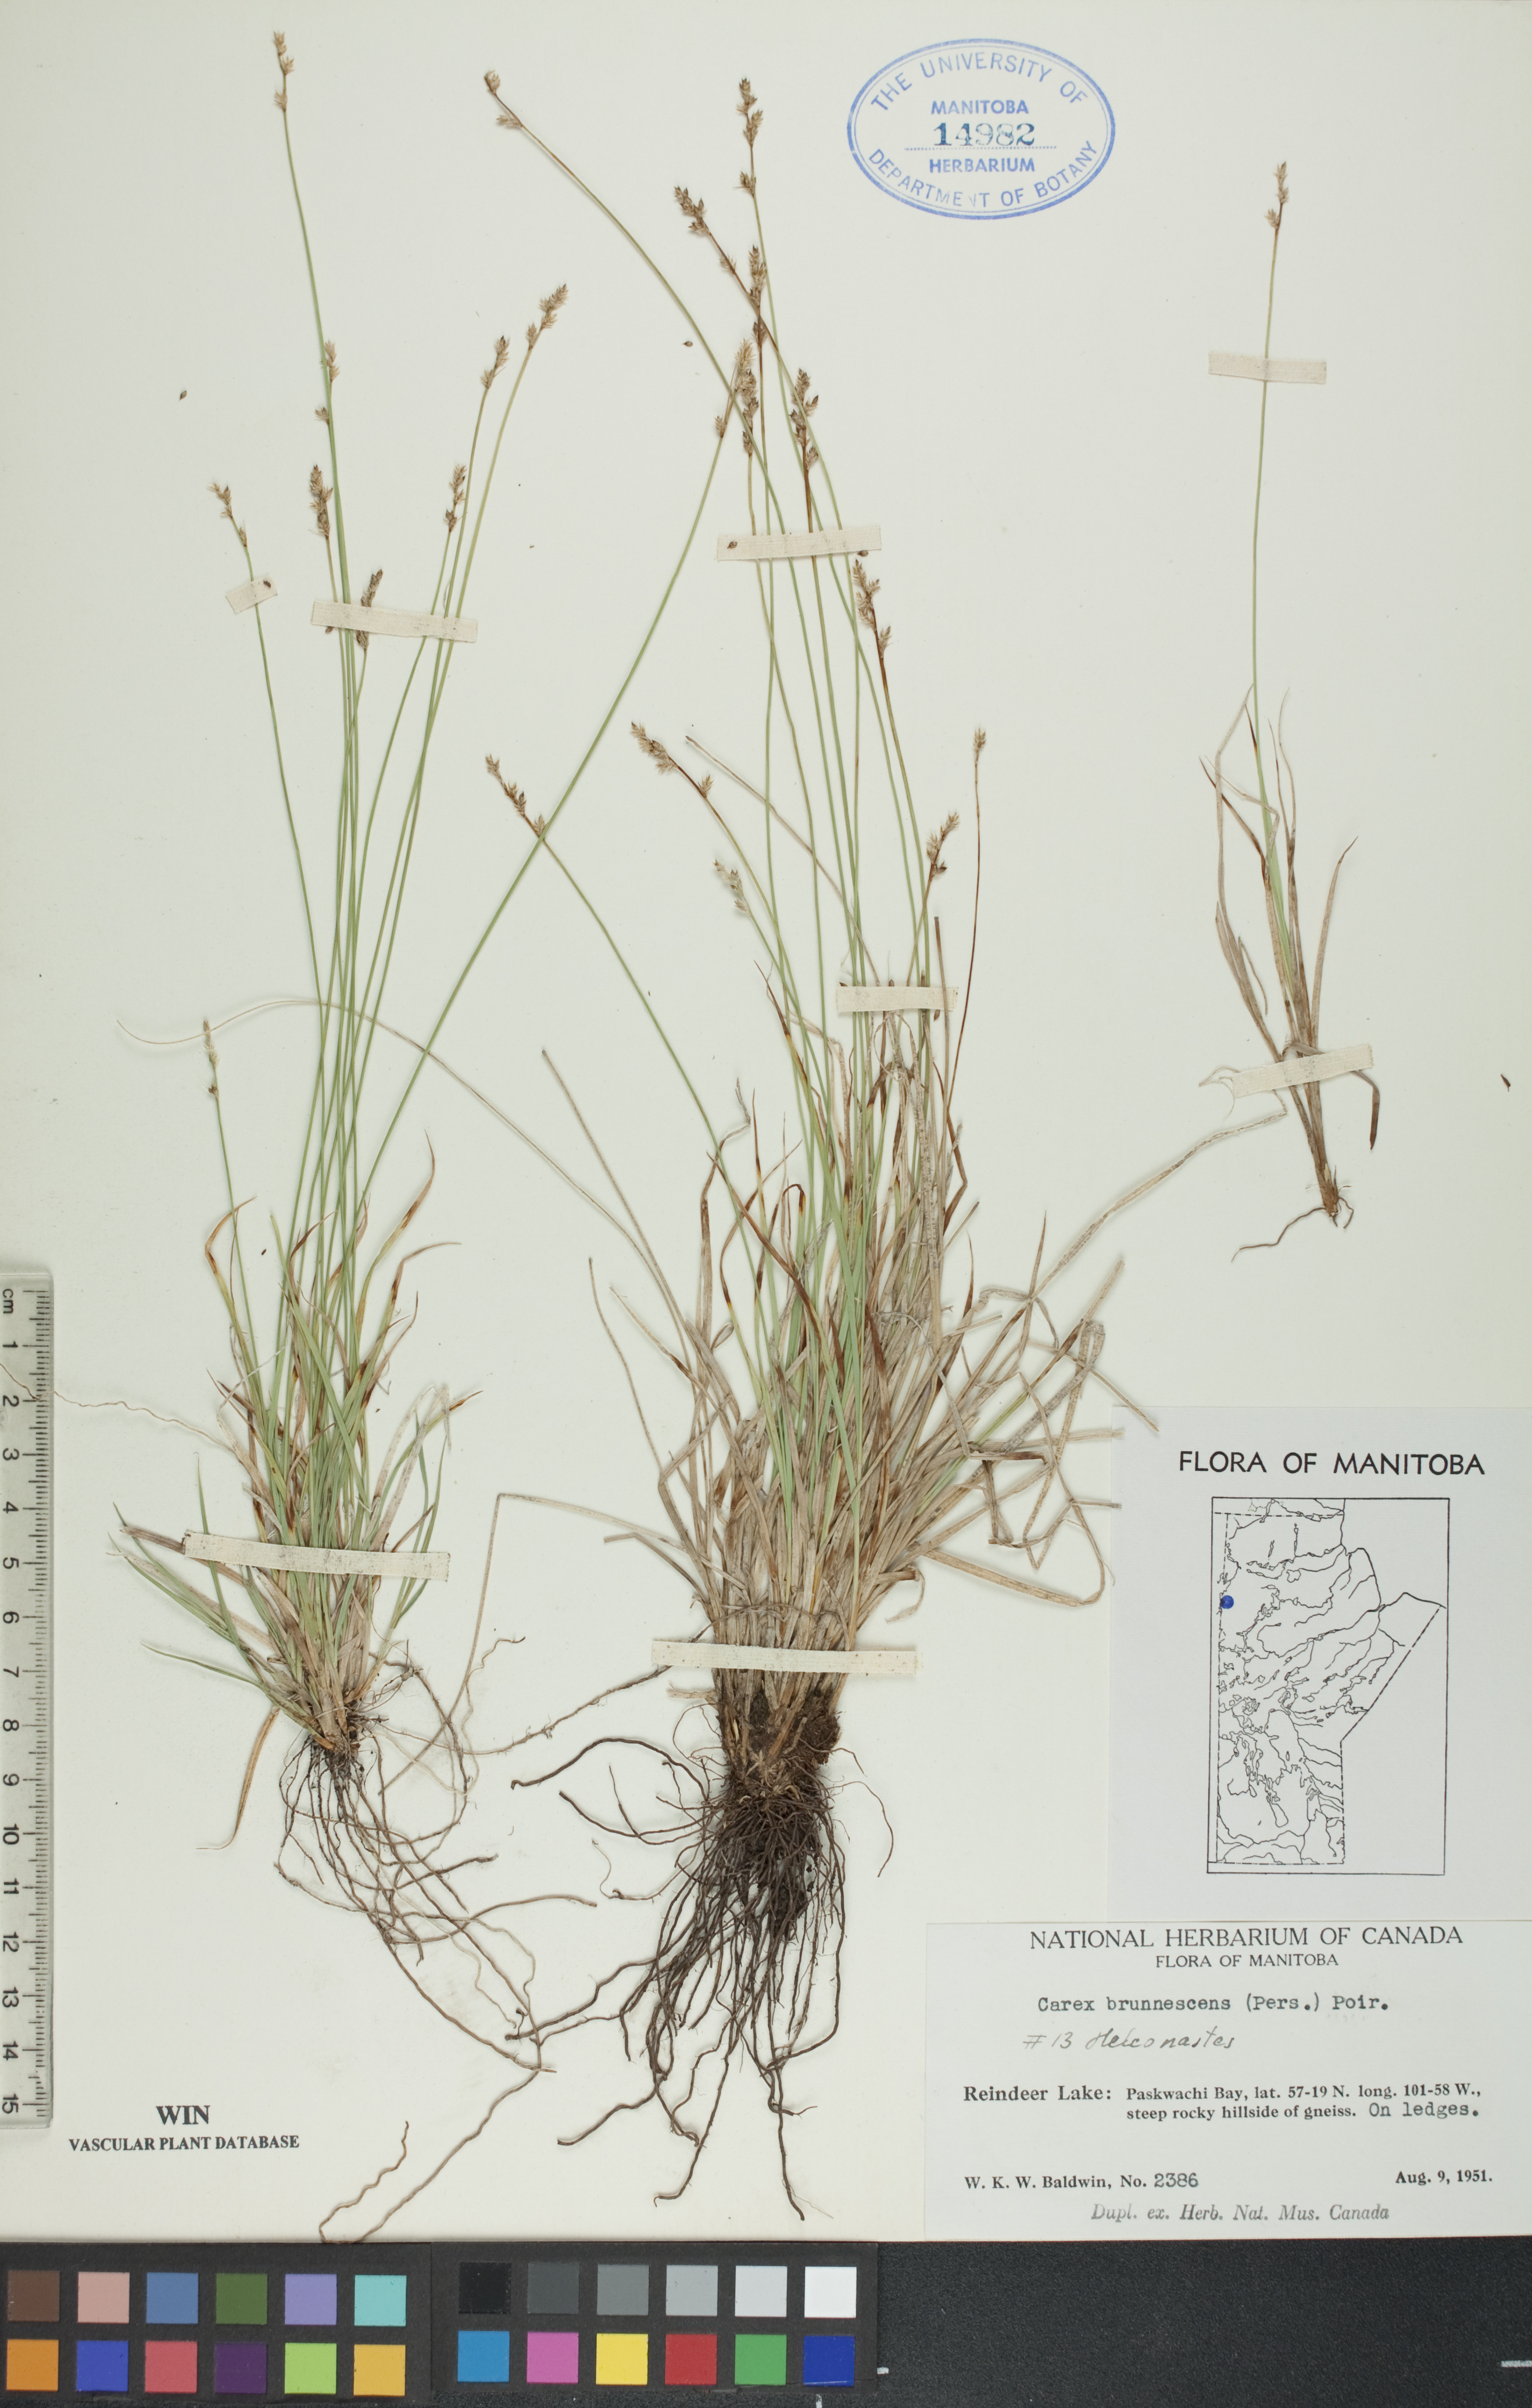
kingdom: Plantae
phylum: Tracheophyta
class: Liliopsida
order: Poales
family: Cyperaceae
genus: Carex
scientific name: Carex brunnescens
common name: Brown sedge
